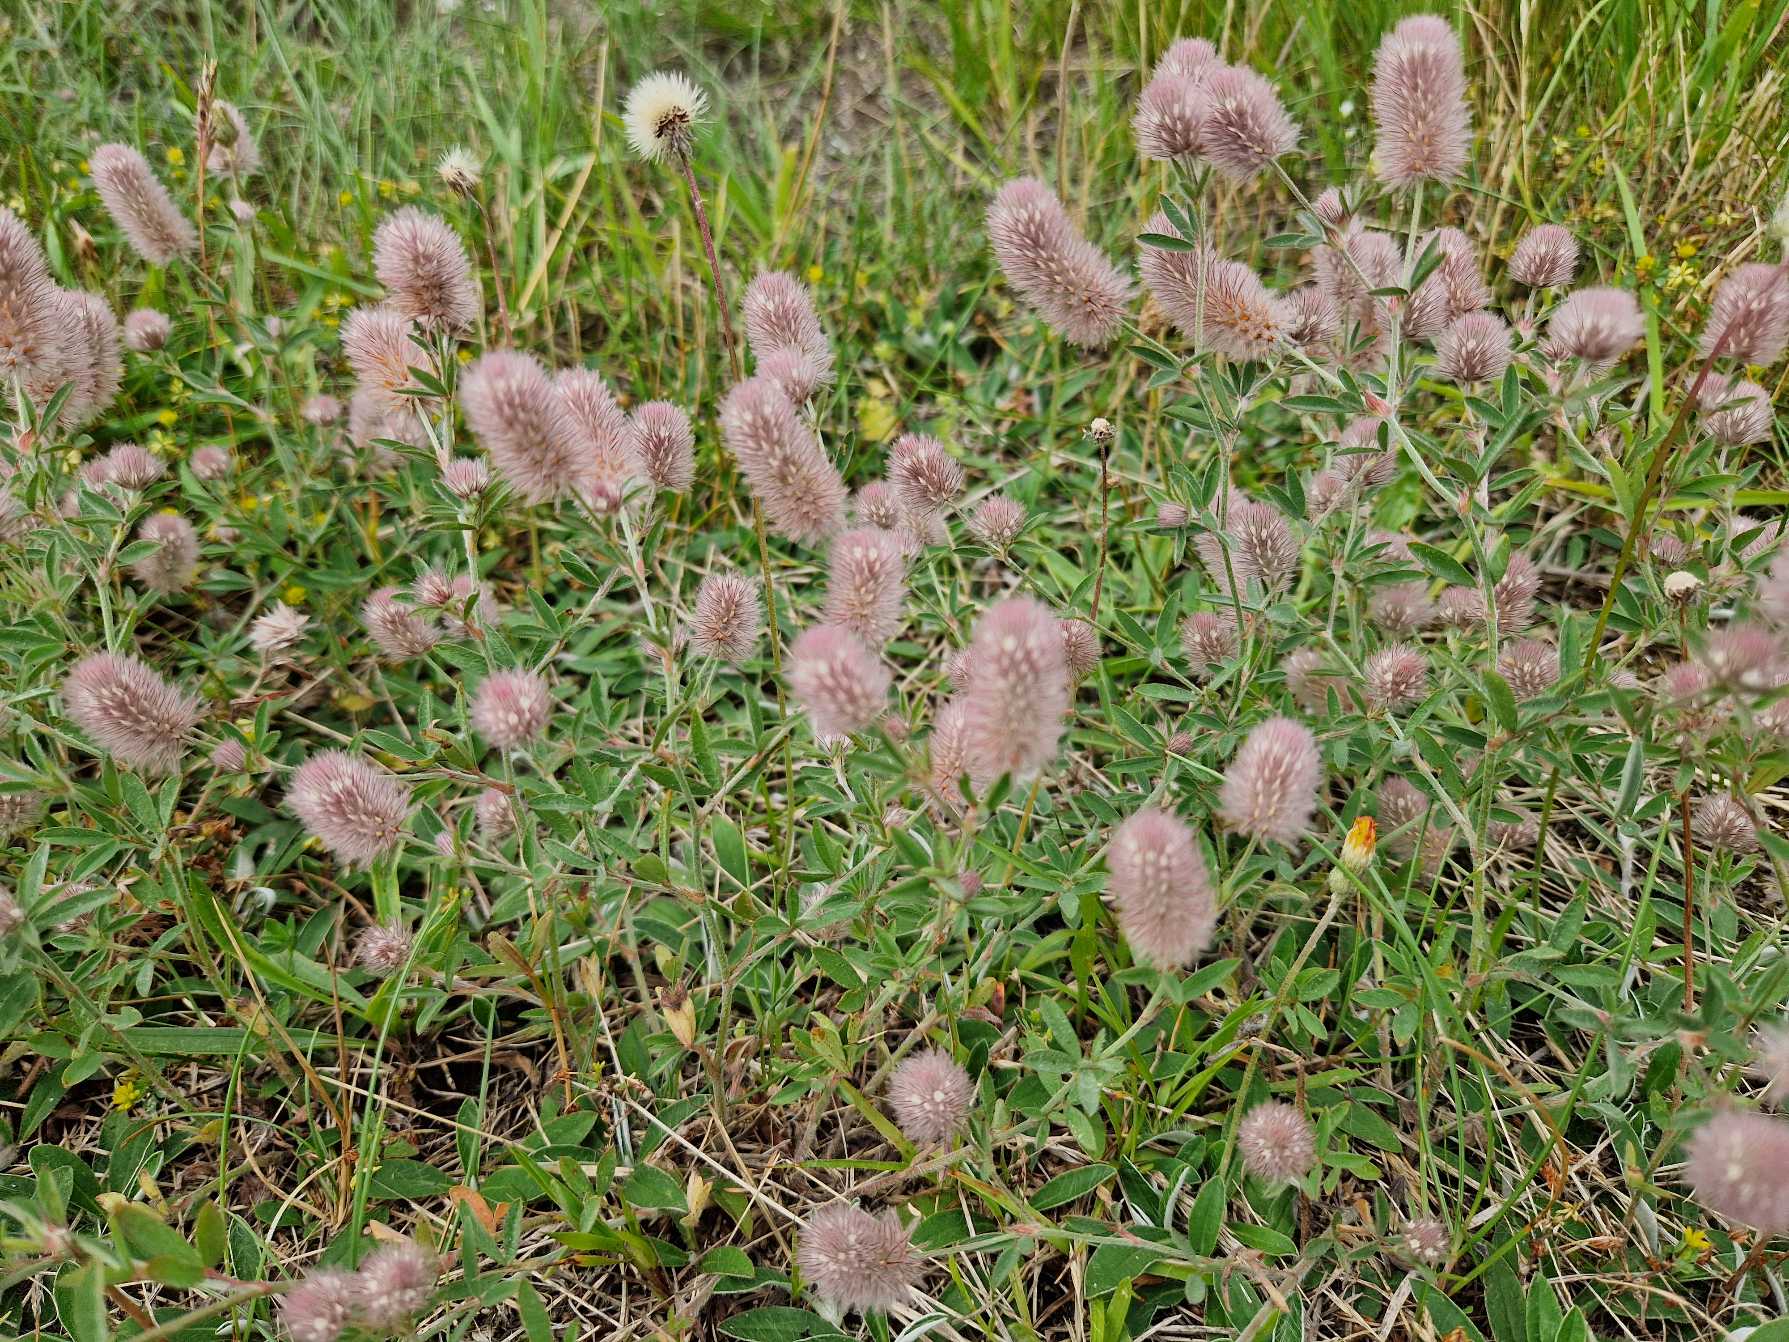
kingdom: Plantae
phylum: Tracheophyta
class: Magnoliopsida
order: Fabales
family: Fabaceae
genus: Trifolium
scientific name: Trifolium arvense
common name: Hare-kløver
